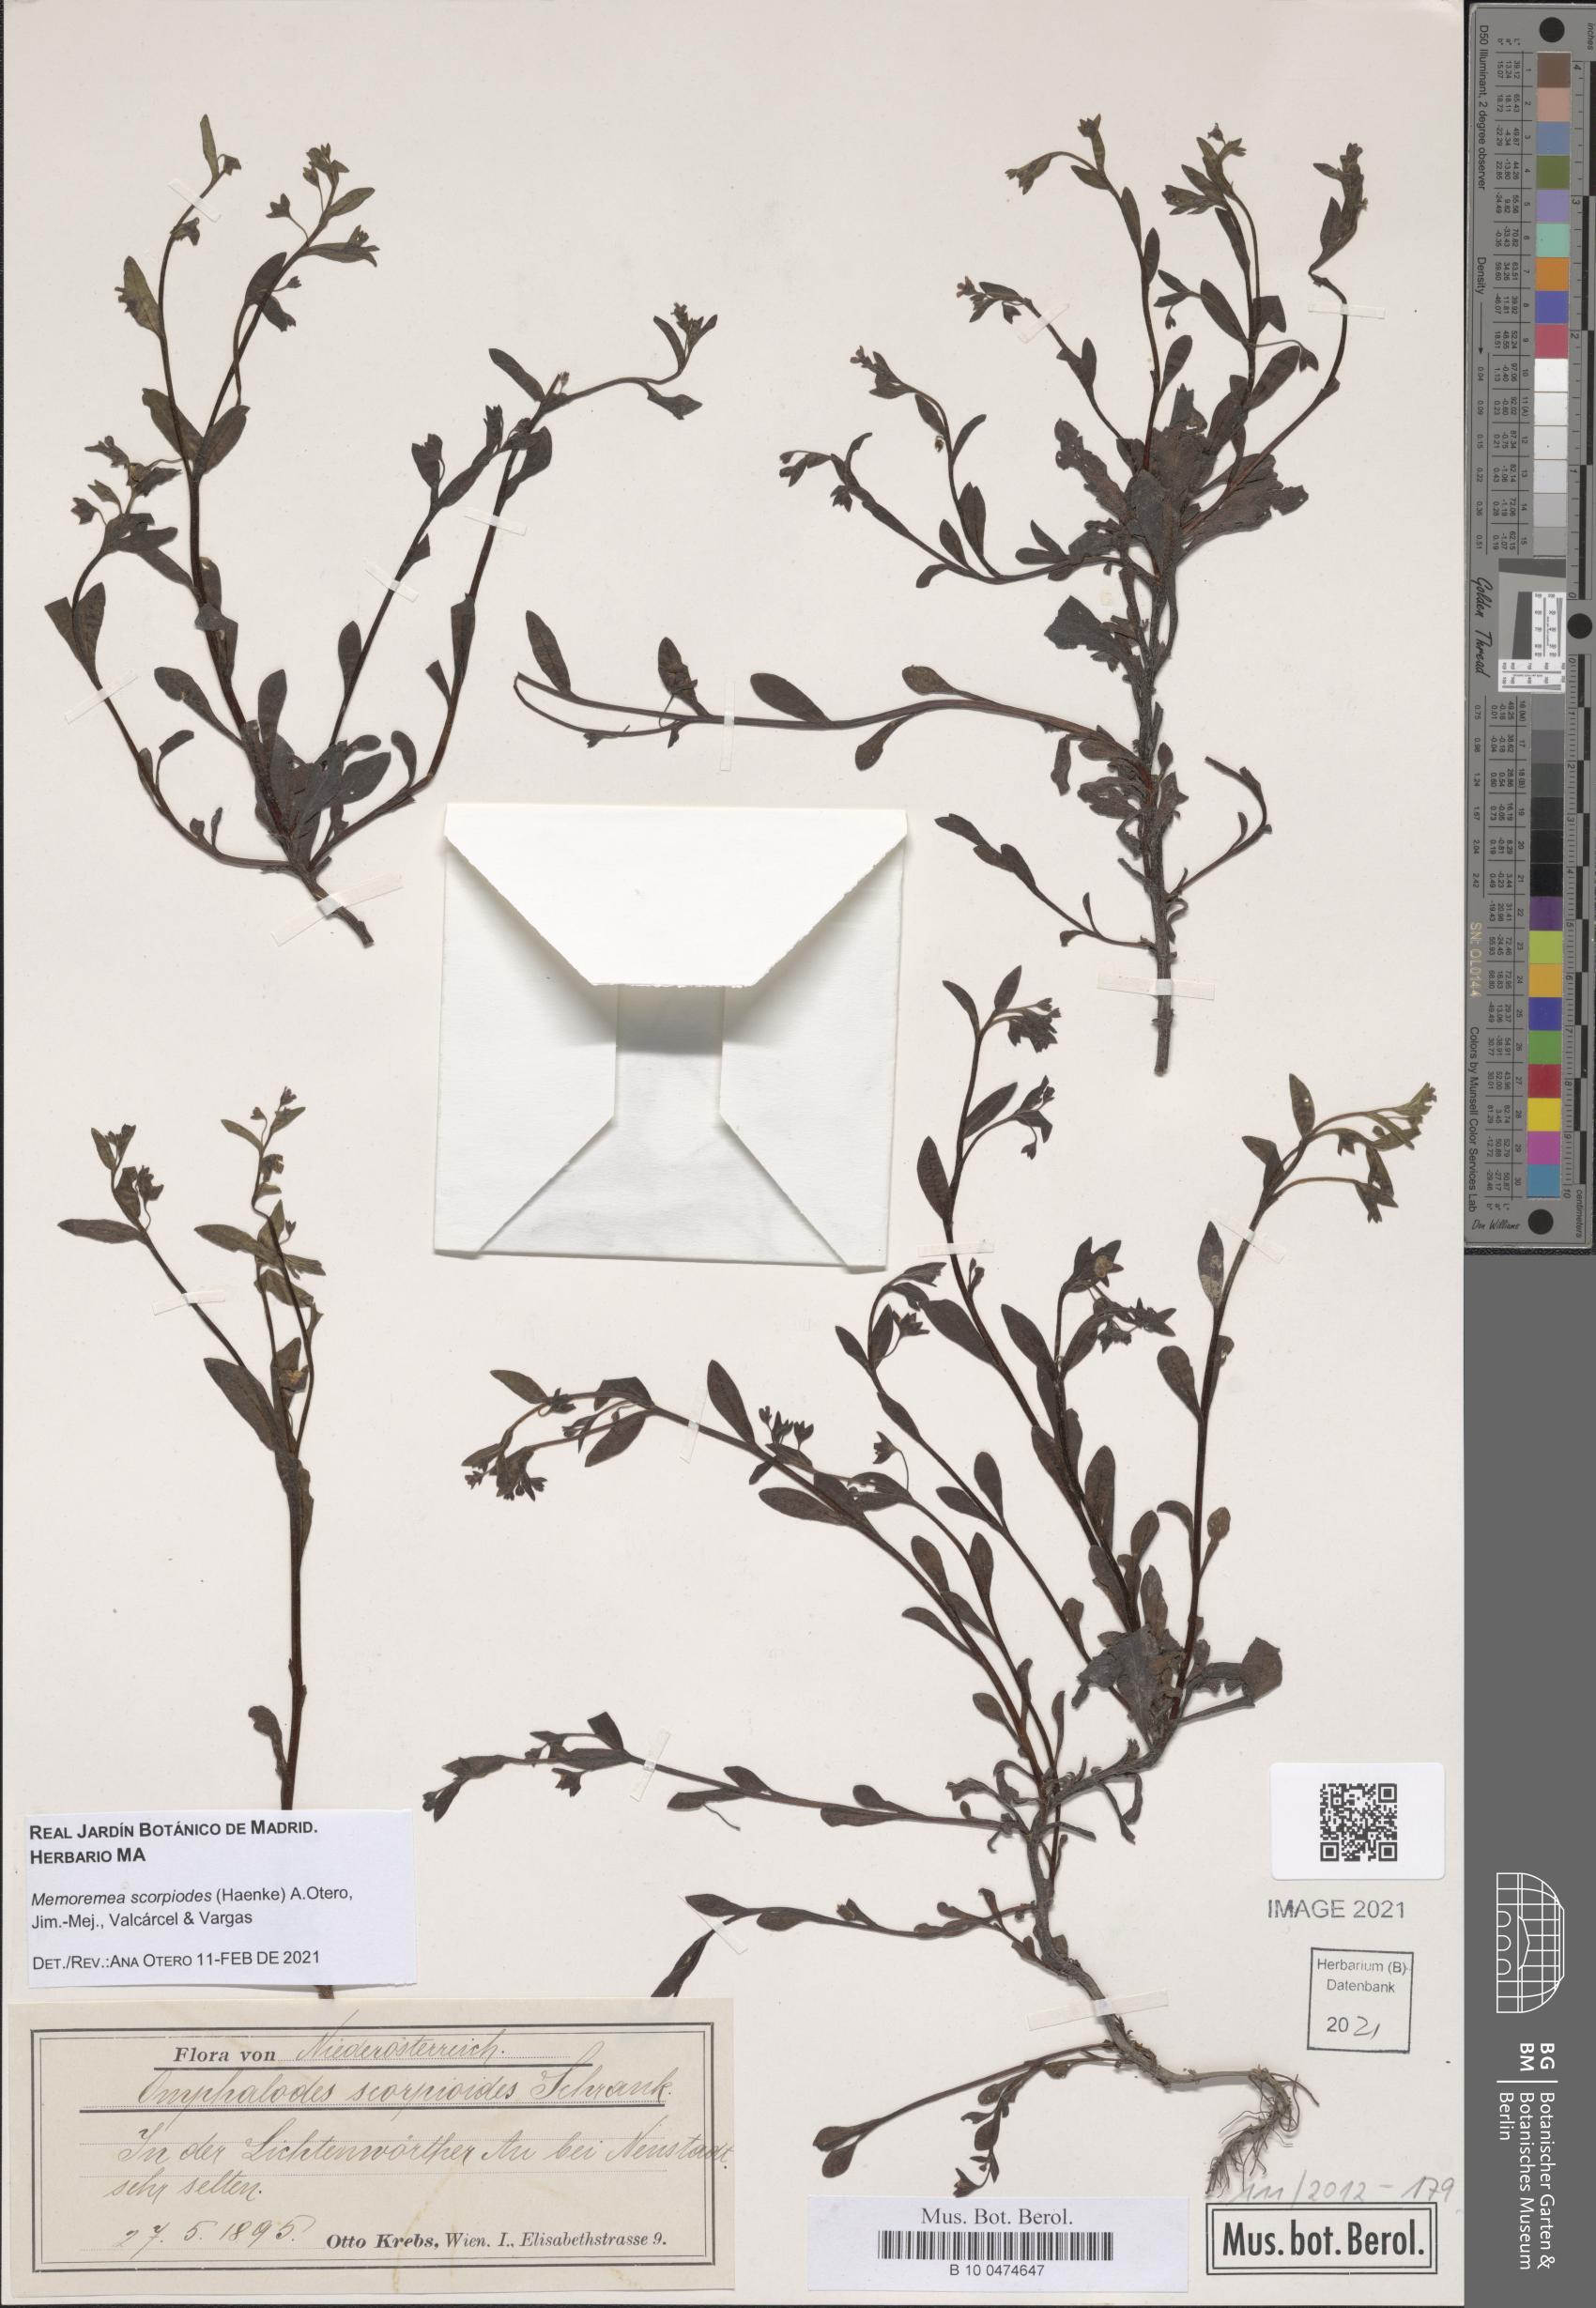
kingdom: Plantae
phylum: Tracheophyta
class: Magnoliopsida
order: Boraginales
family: Boraginaceae
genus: Memoremea
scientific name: Memoremea scorpioides
